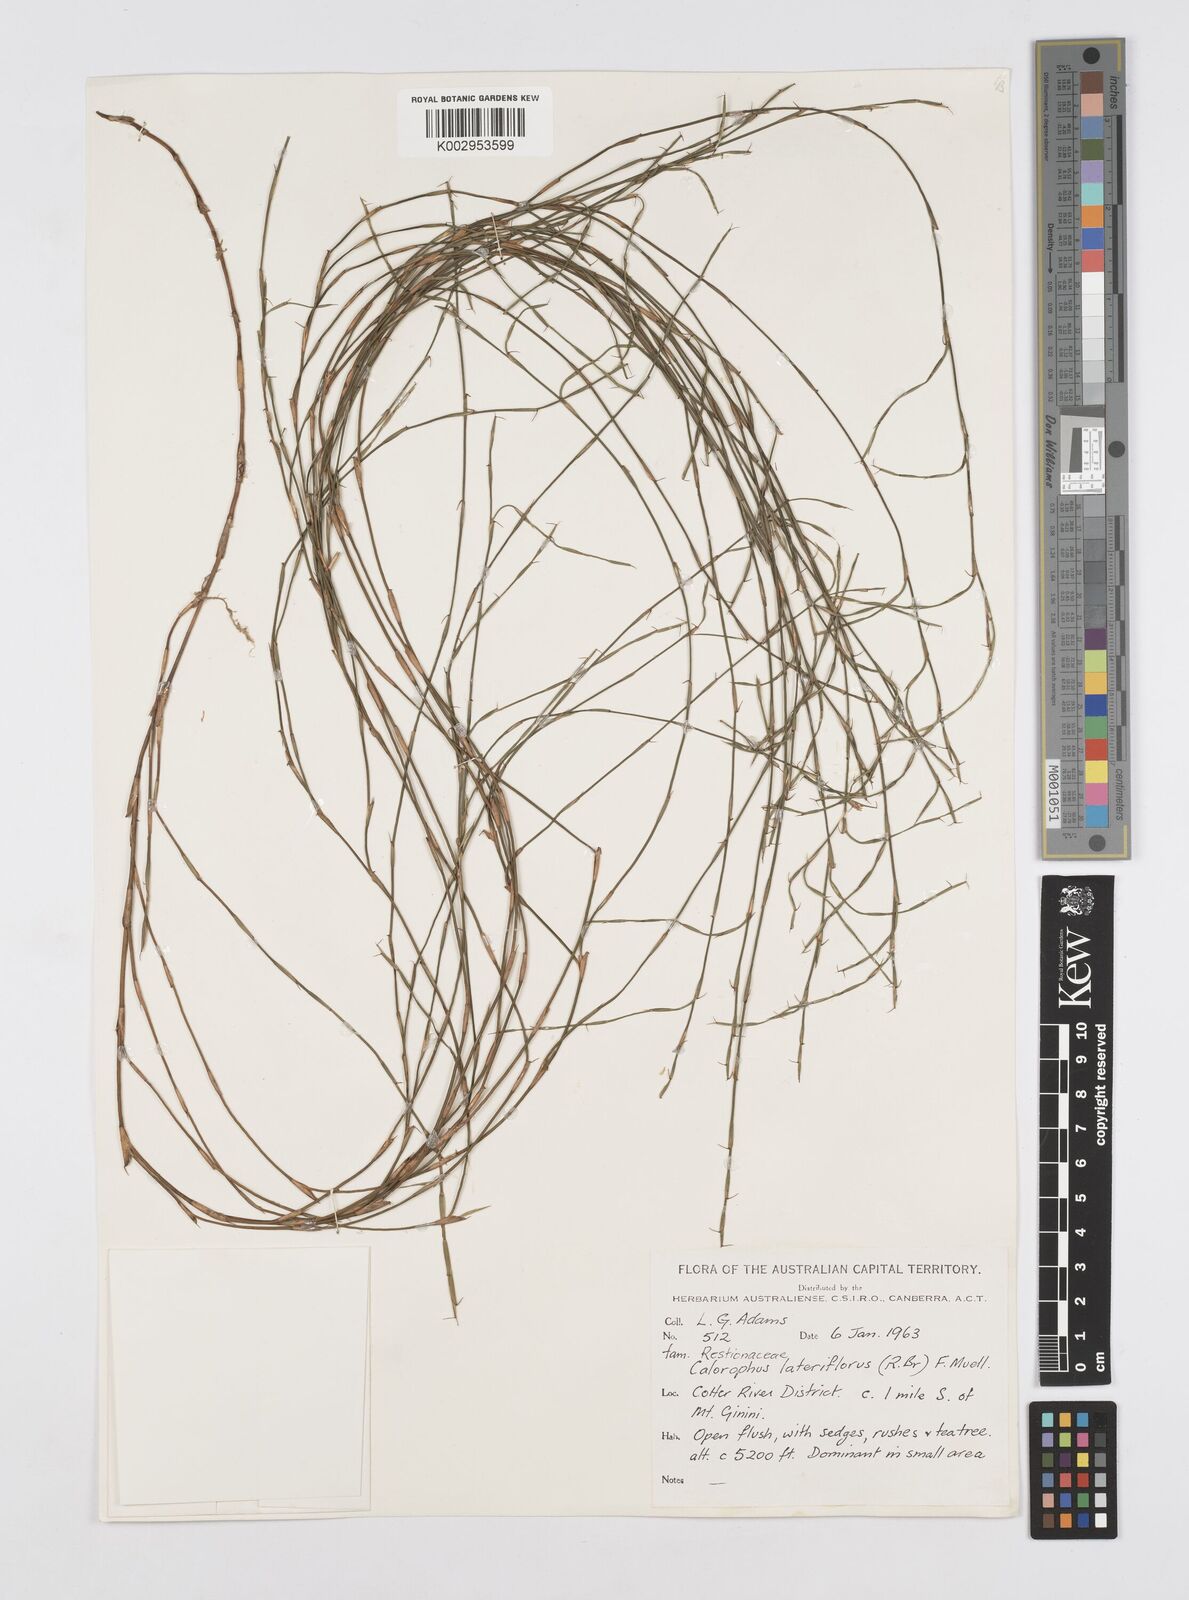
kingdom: Plantae
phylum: Tracheophyta
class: Liliopsida
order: Poales
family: Restionaceae
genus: Empodisma
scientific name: Empodisma minus
